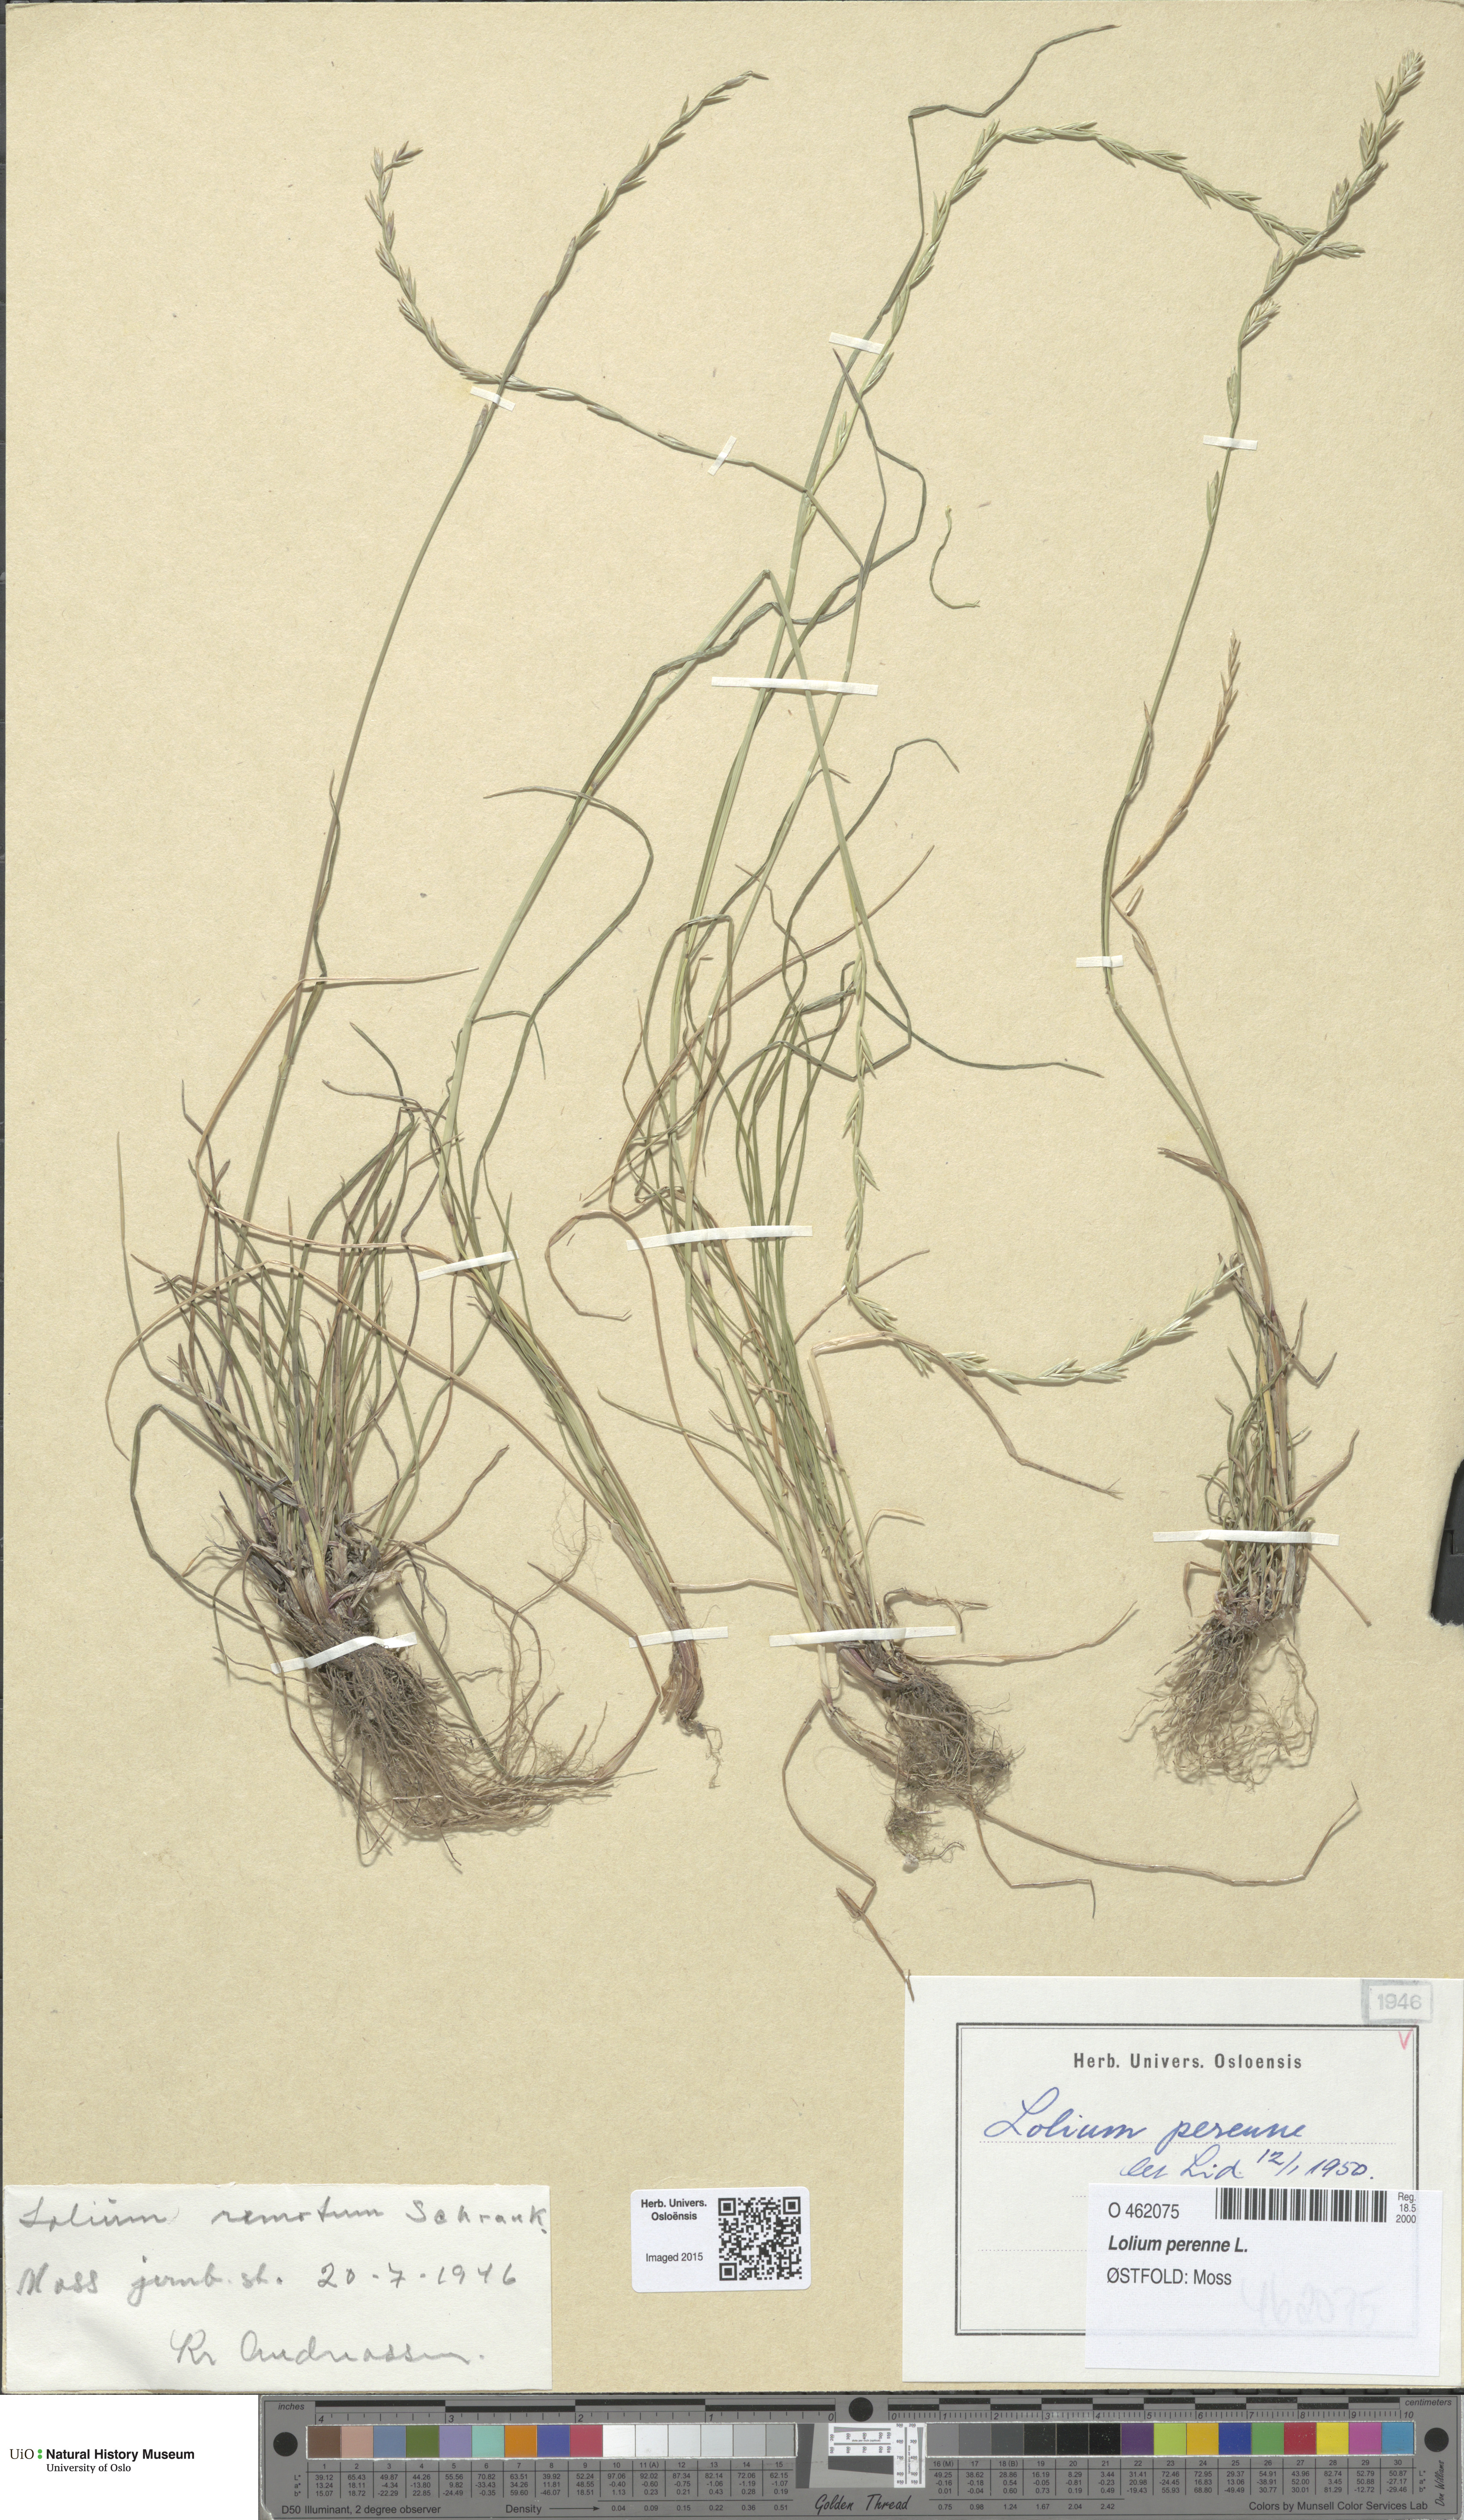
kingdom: Plantae
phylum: Tracheophyta
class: Liliopsida
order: Poales
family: Poaceae
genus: Lolium
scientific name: Lolium perenne
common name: Perennial ryegrass
